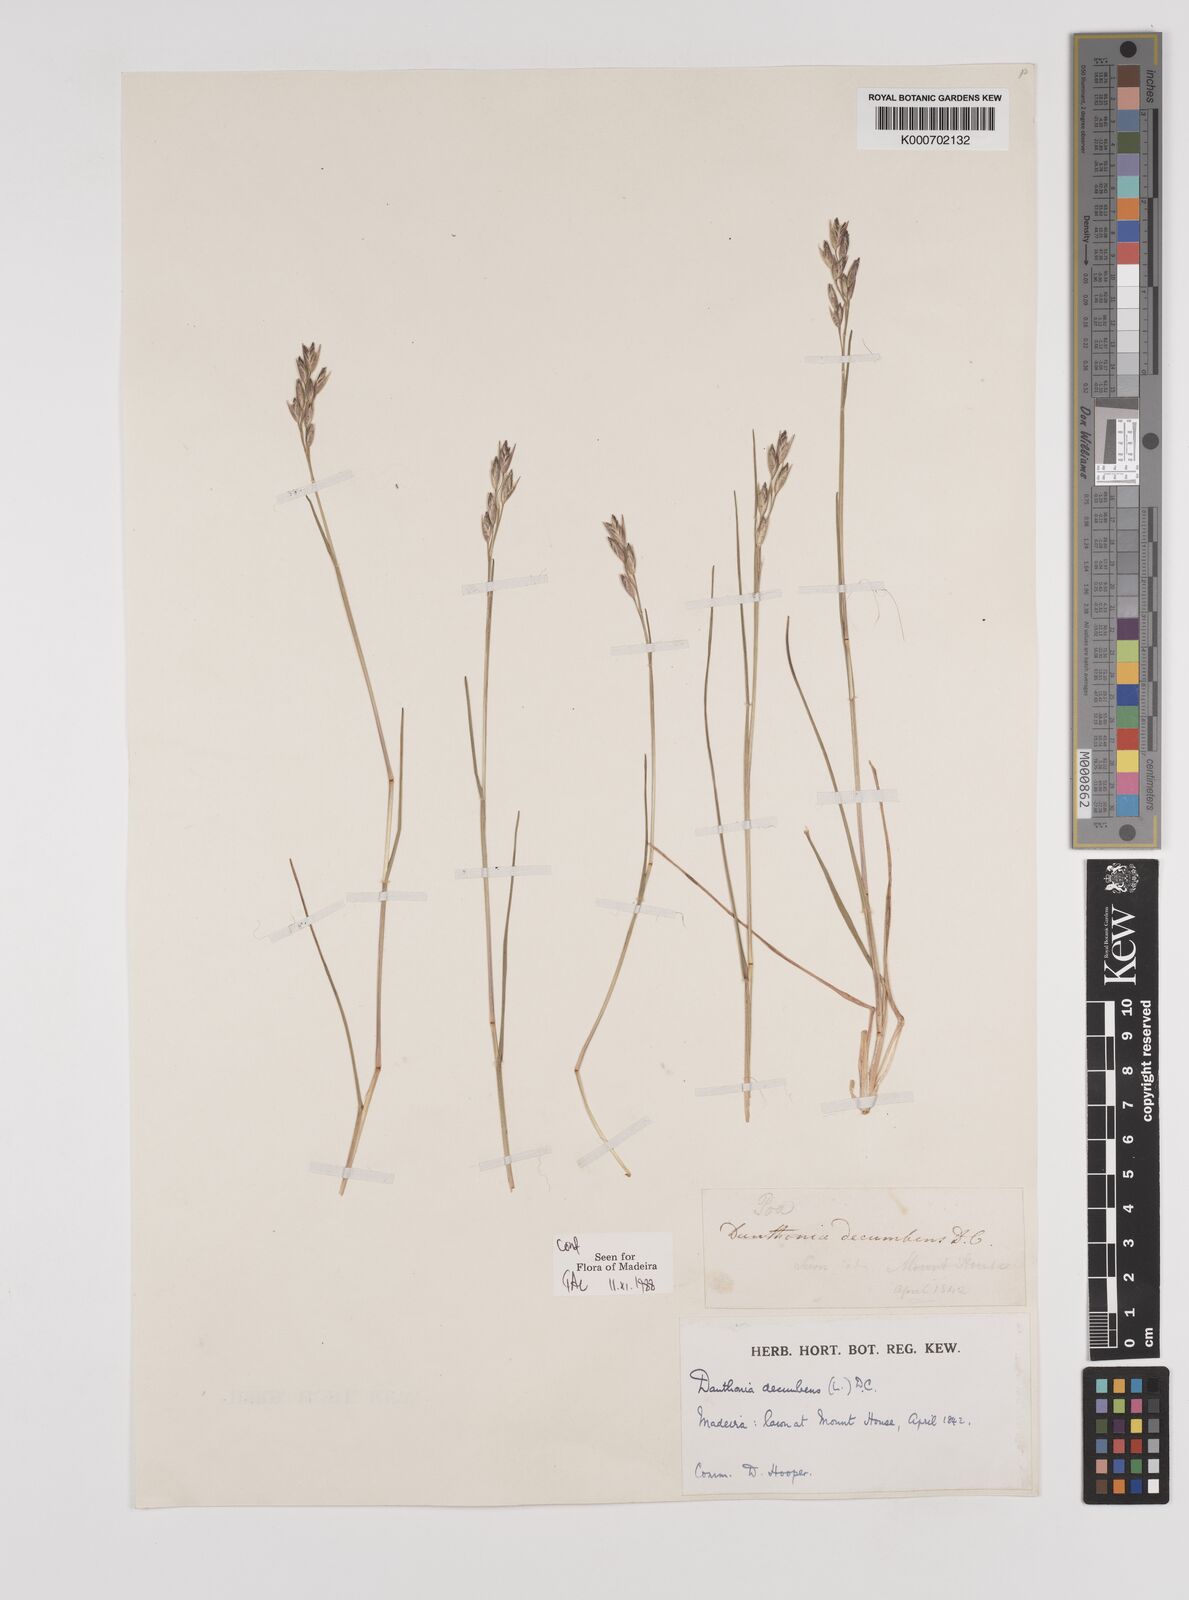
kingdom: Plantae
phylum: Tracheophyta
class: Liliopsida
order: Poales
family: Poaceae
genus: Danthonia
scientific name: Danthonia decumbens
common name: Common heathgrass
